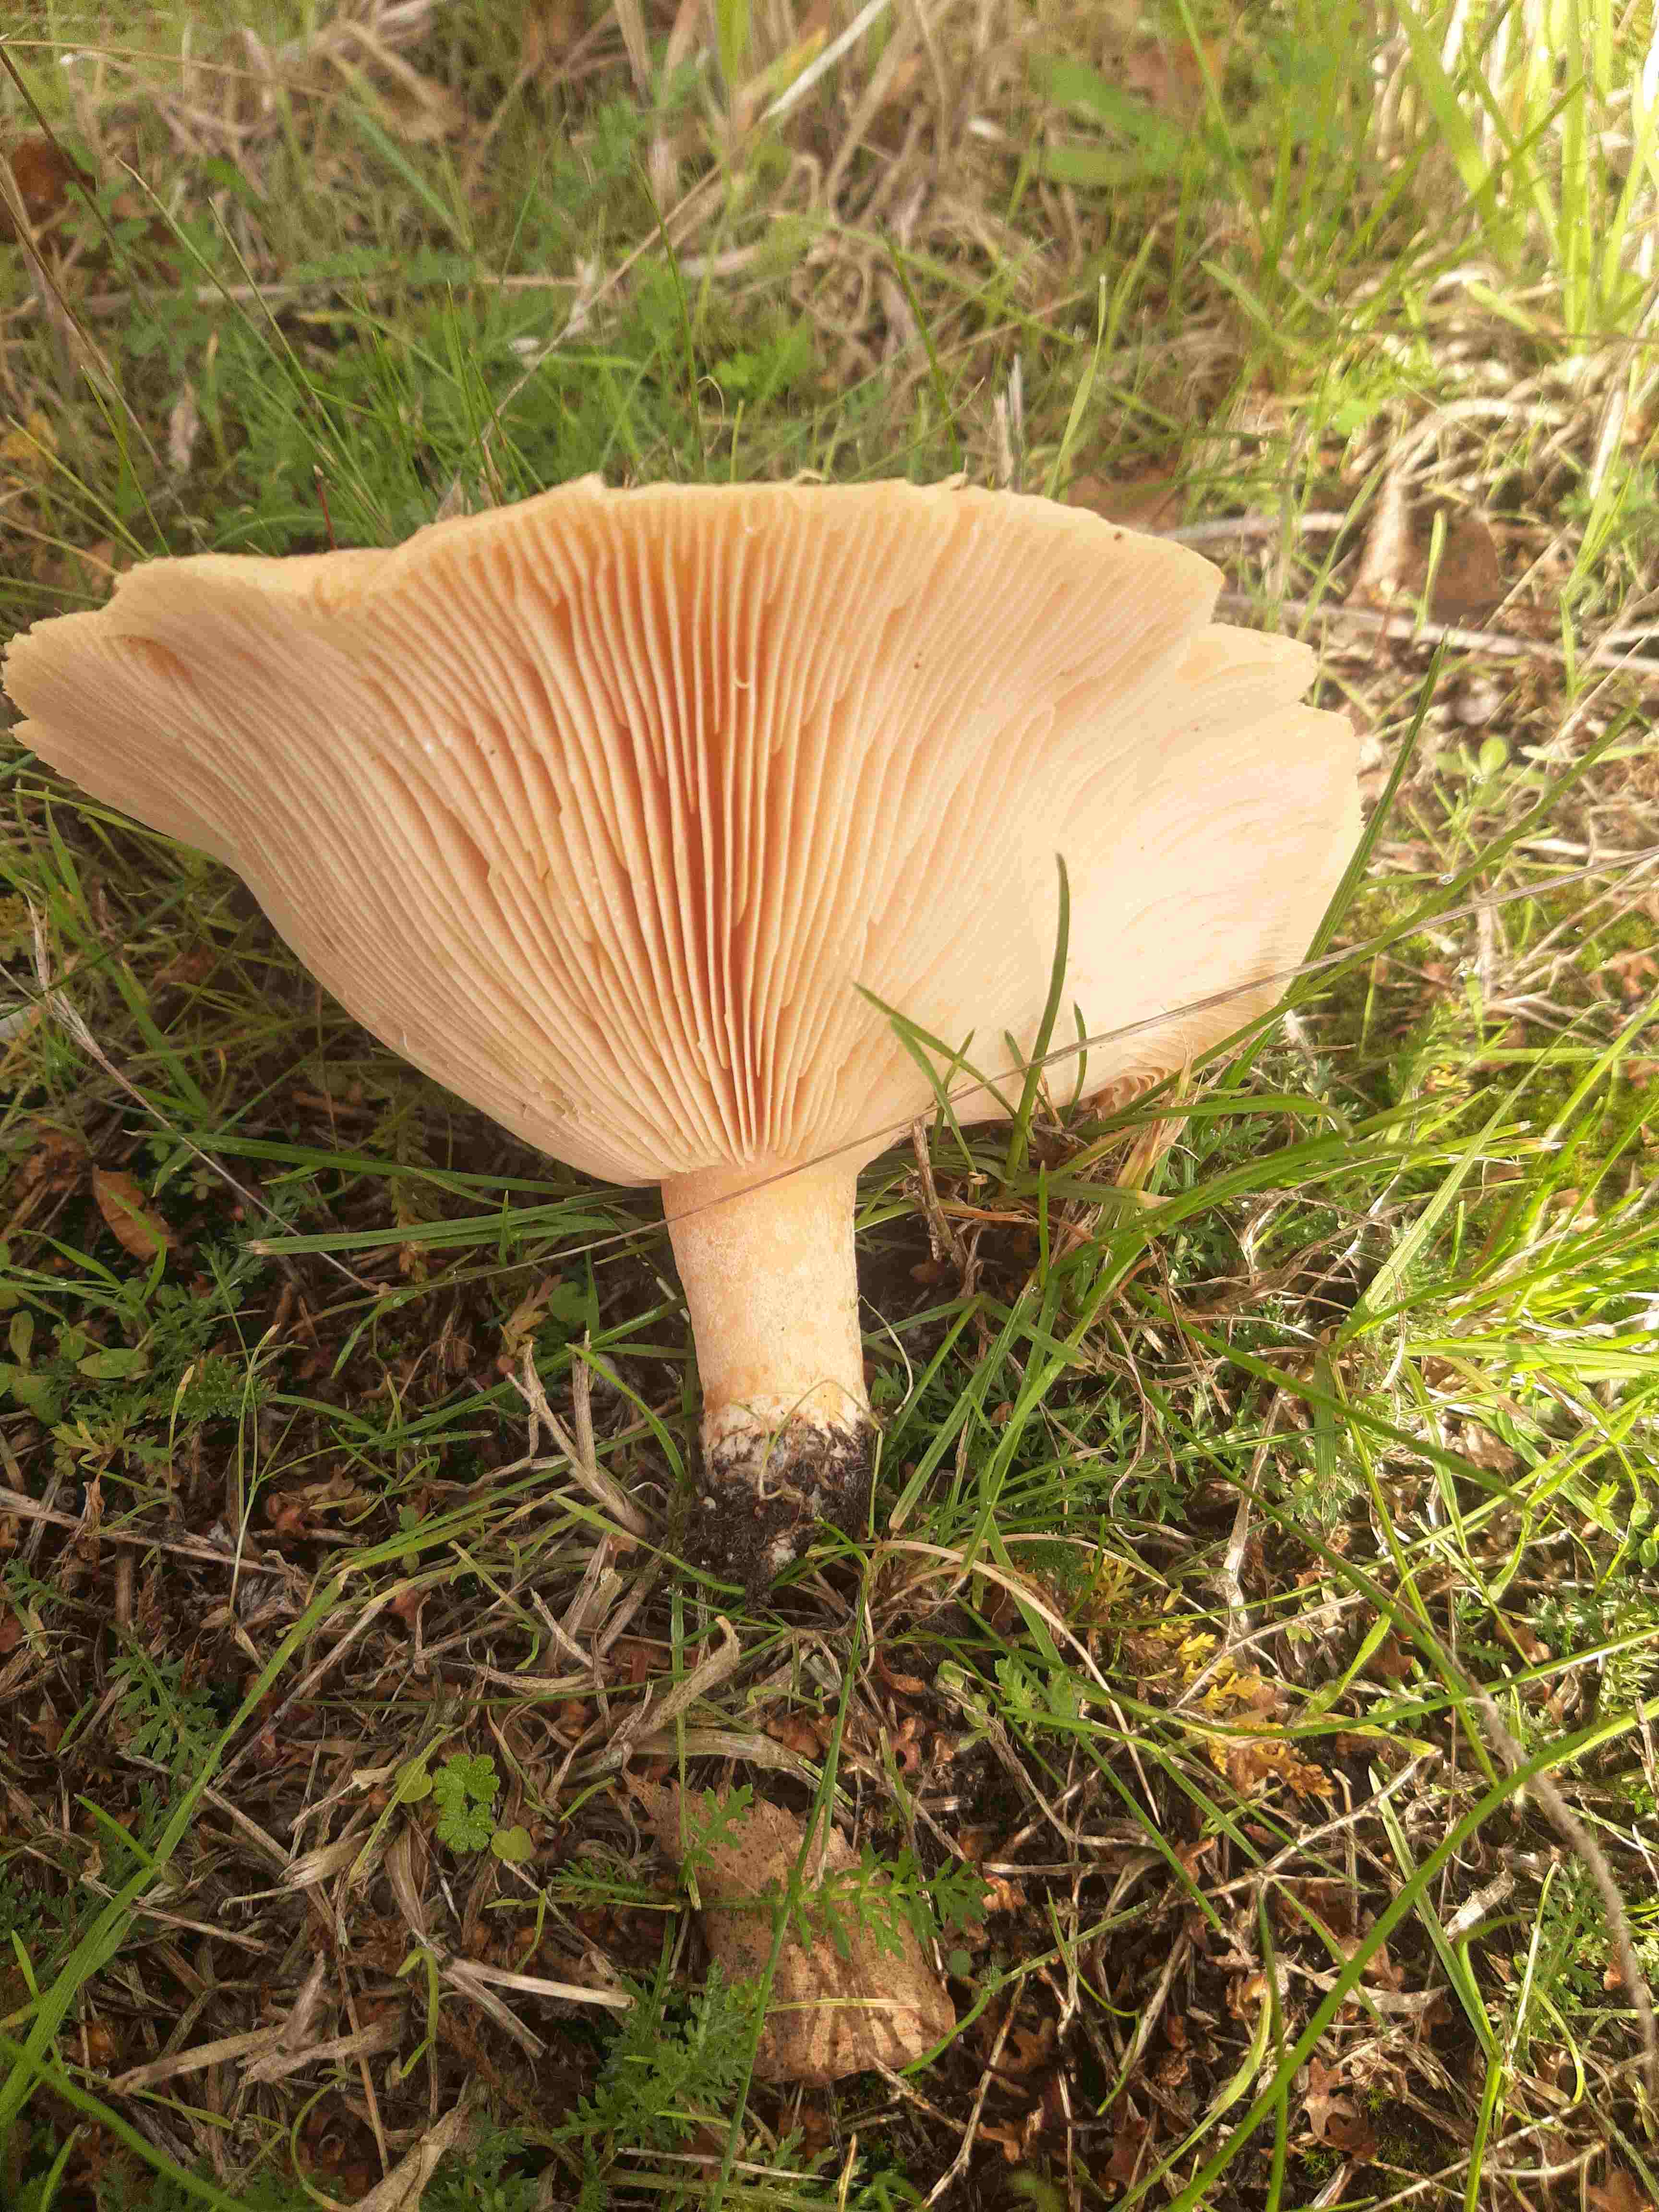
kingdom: Fungi
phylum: Basidiomycota
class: Agaricomycetes
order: Russulales
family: Russulaceae
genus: Lactarius
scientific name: Lactarius pubescens
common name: dunet mælkehat
